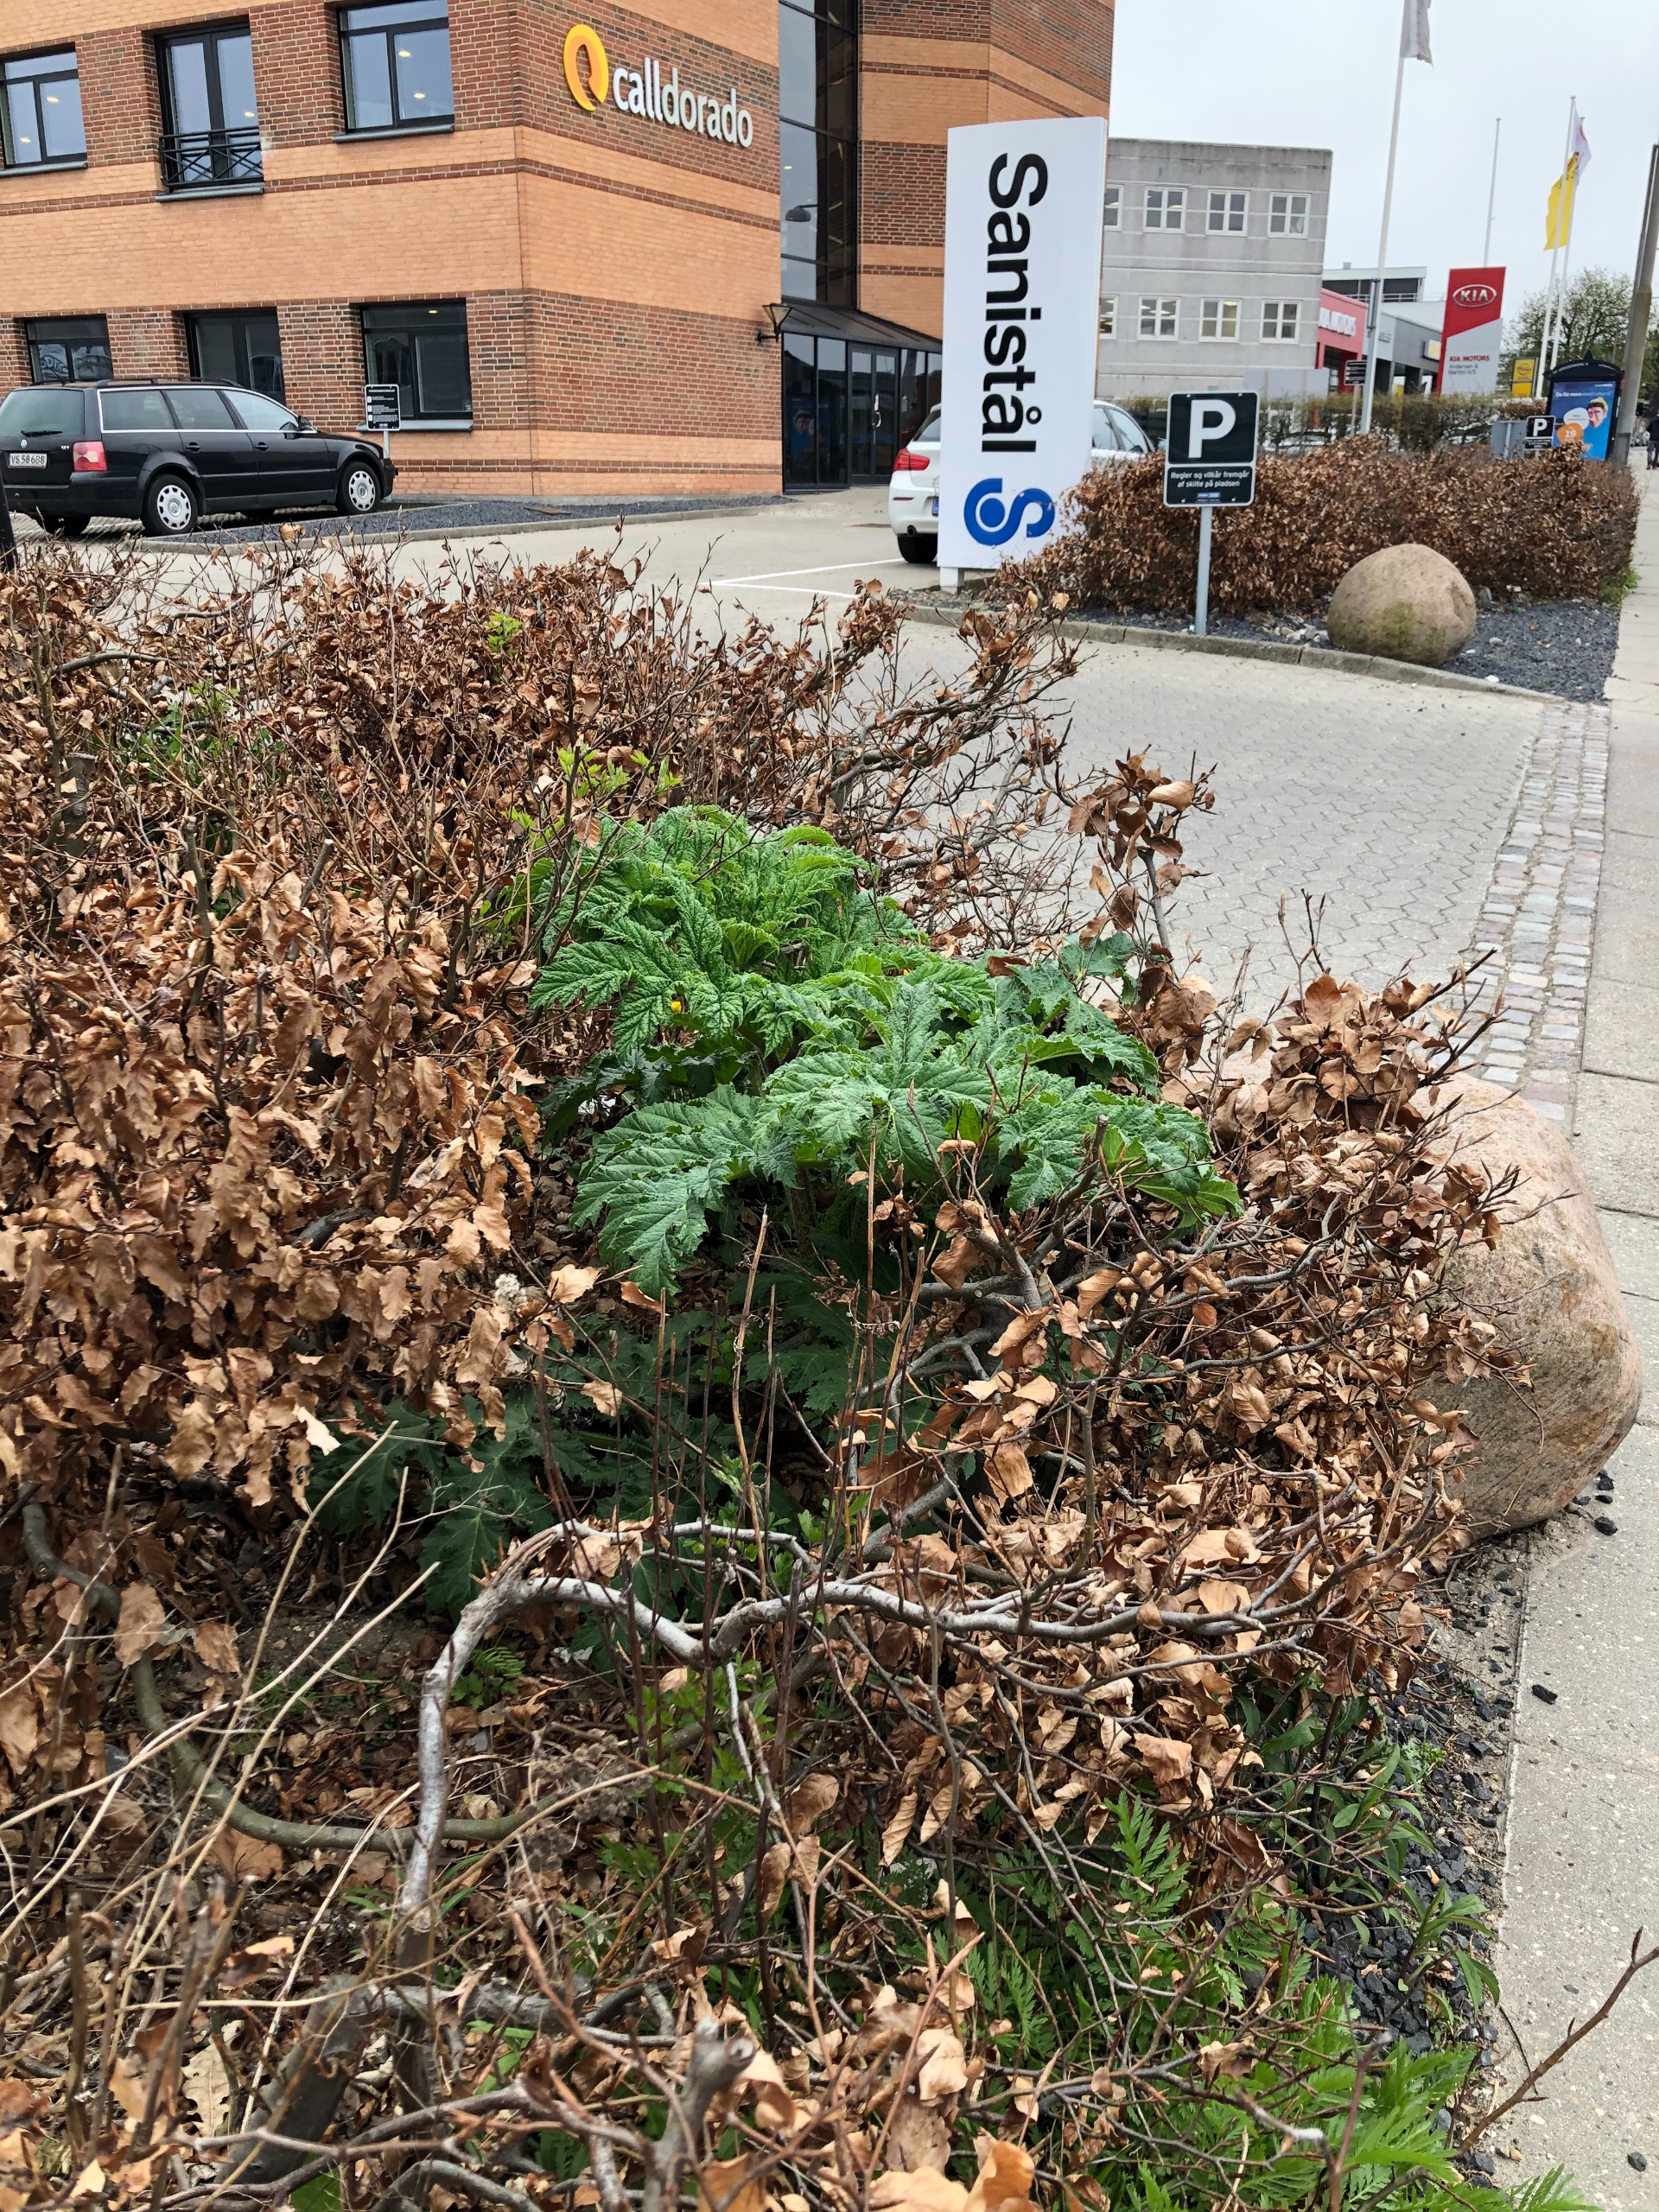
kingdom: Plantae
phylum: Tracheophyta
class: Magnoliopsida
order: Apiales
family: Apiaceae
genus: Heracleum
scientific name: Heracleum mantegazzianum
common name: Kæmpe-bjørneklo
